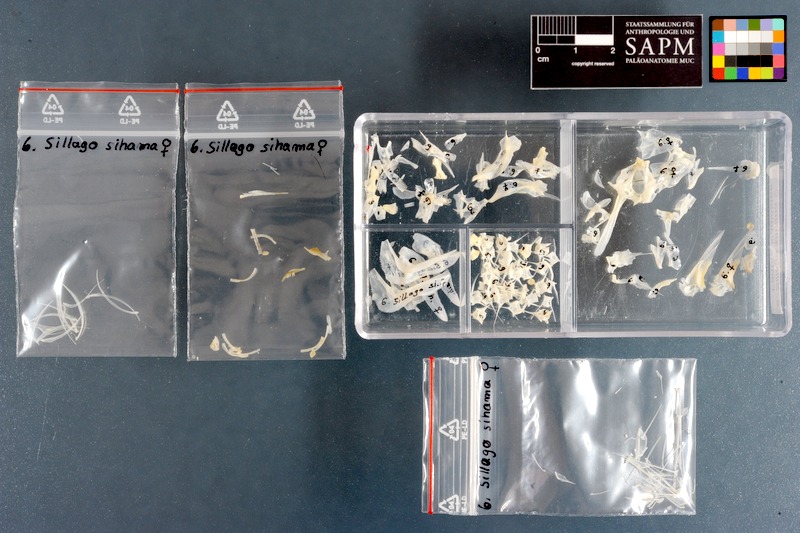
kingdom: Animalia
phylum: Chordata
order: Perciformes
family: Sillaginidae
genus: Sillago
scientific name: Sillago sihama
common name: Silver sillago
